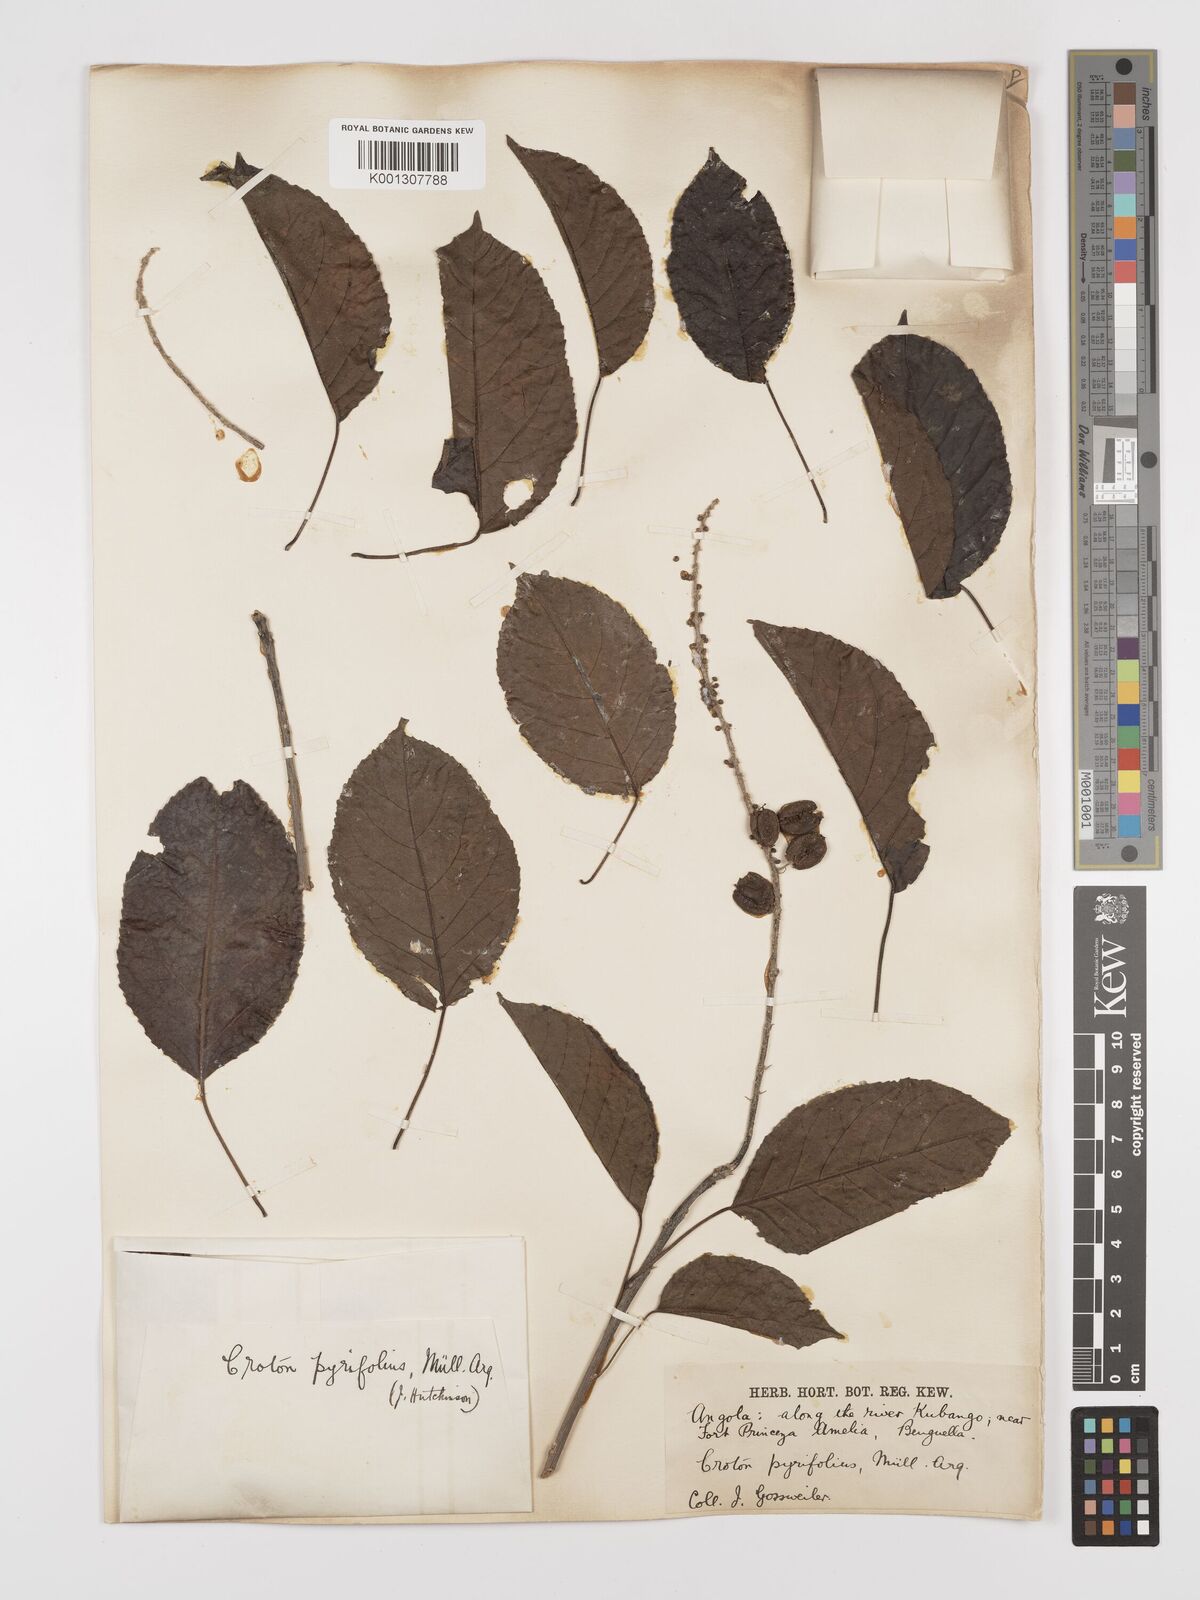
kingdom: Plantae
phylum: Tracheophyta
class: Magnoliopsida
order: Malpighiales
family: Euphorbiaceae
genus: Croton
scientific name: Croton pyrifolius
